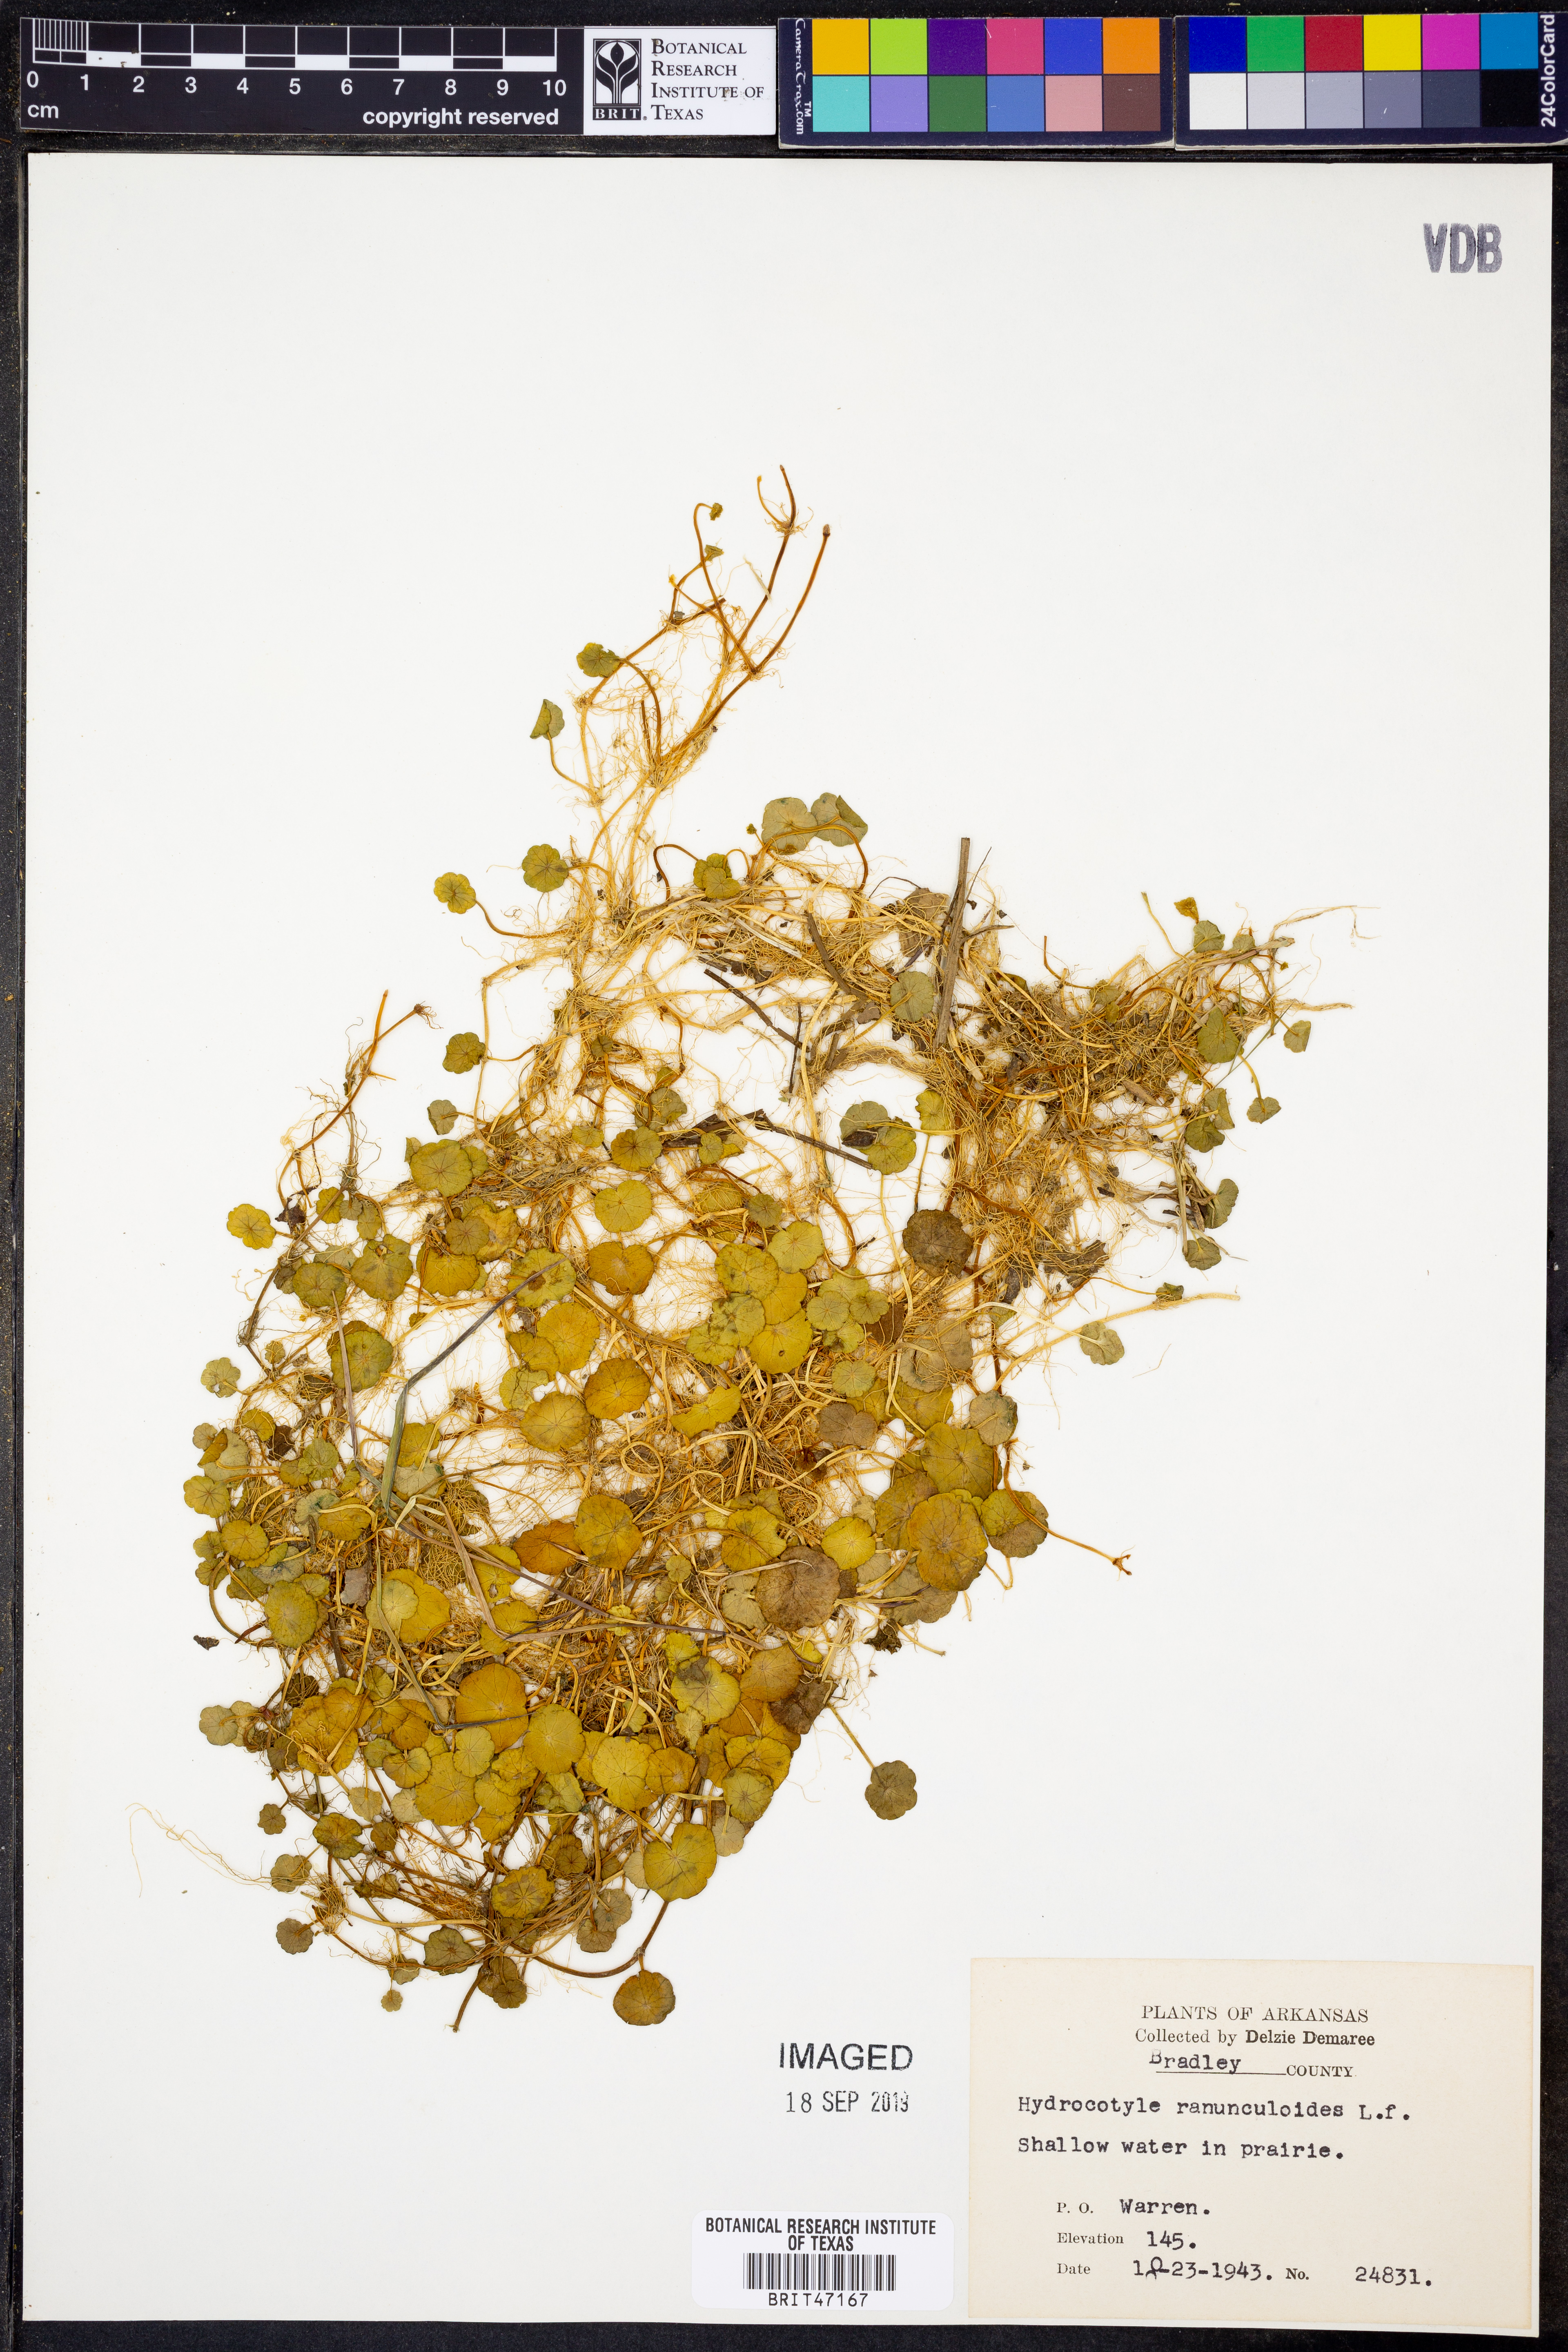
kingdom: Plantae
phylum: Tracheophyta
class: Magnoliopsida
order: Apiales
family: Araliaceae
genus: Hydrocotyle
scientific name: Hydrocotyle ranunculoides
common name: Floating pennywort
